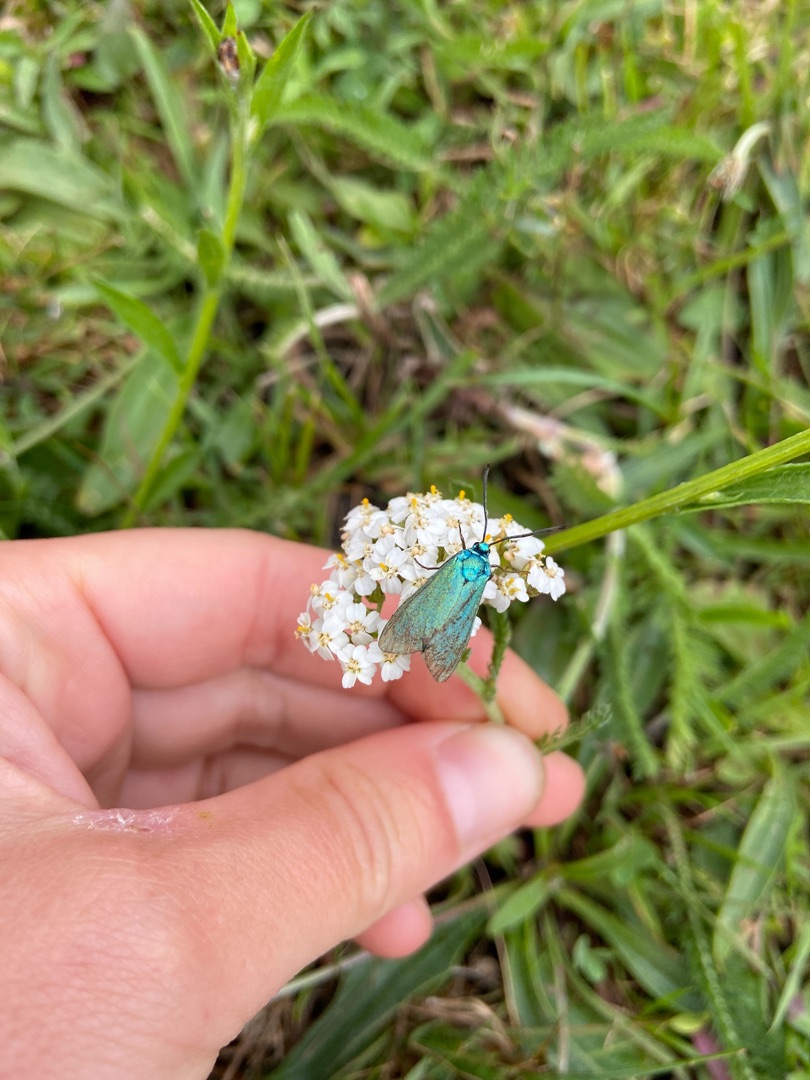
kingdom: Animalia
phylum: Arthropoda
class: Insecta
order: Lepidoptera
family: Zygaenidae
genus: Adscita
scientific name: Adscita statices
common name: Metalvinge
